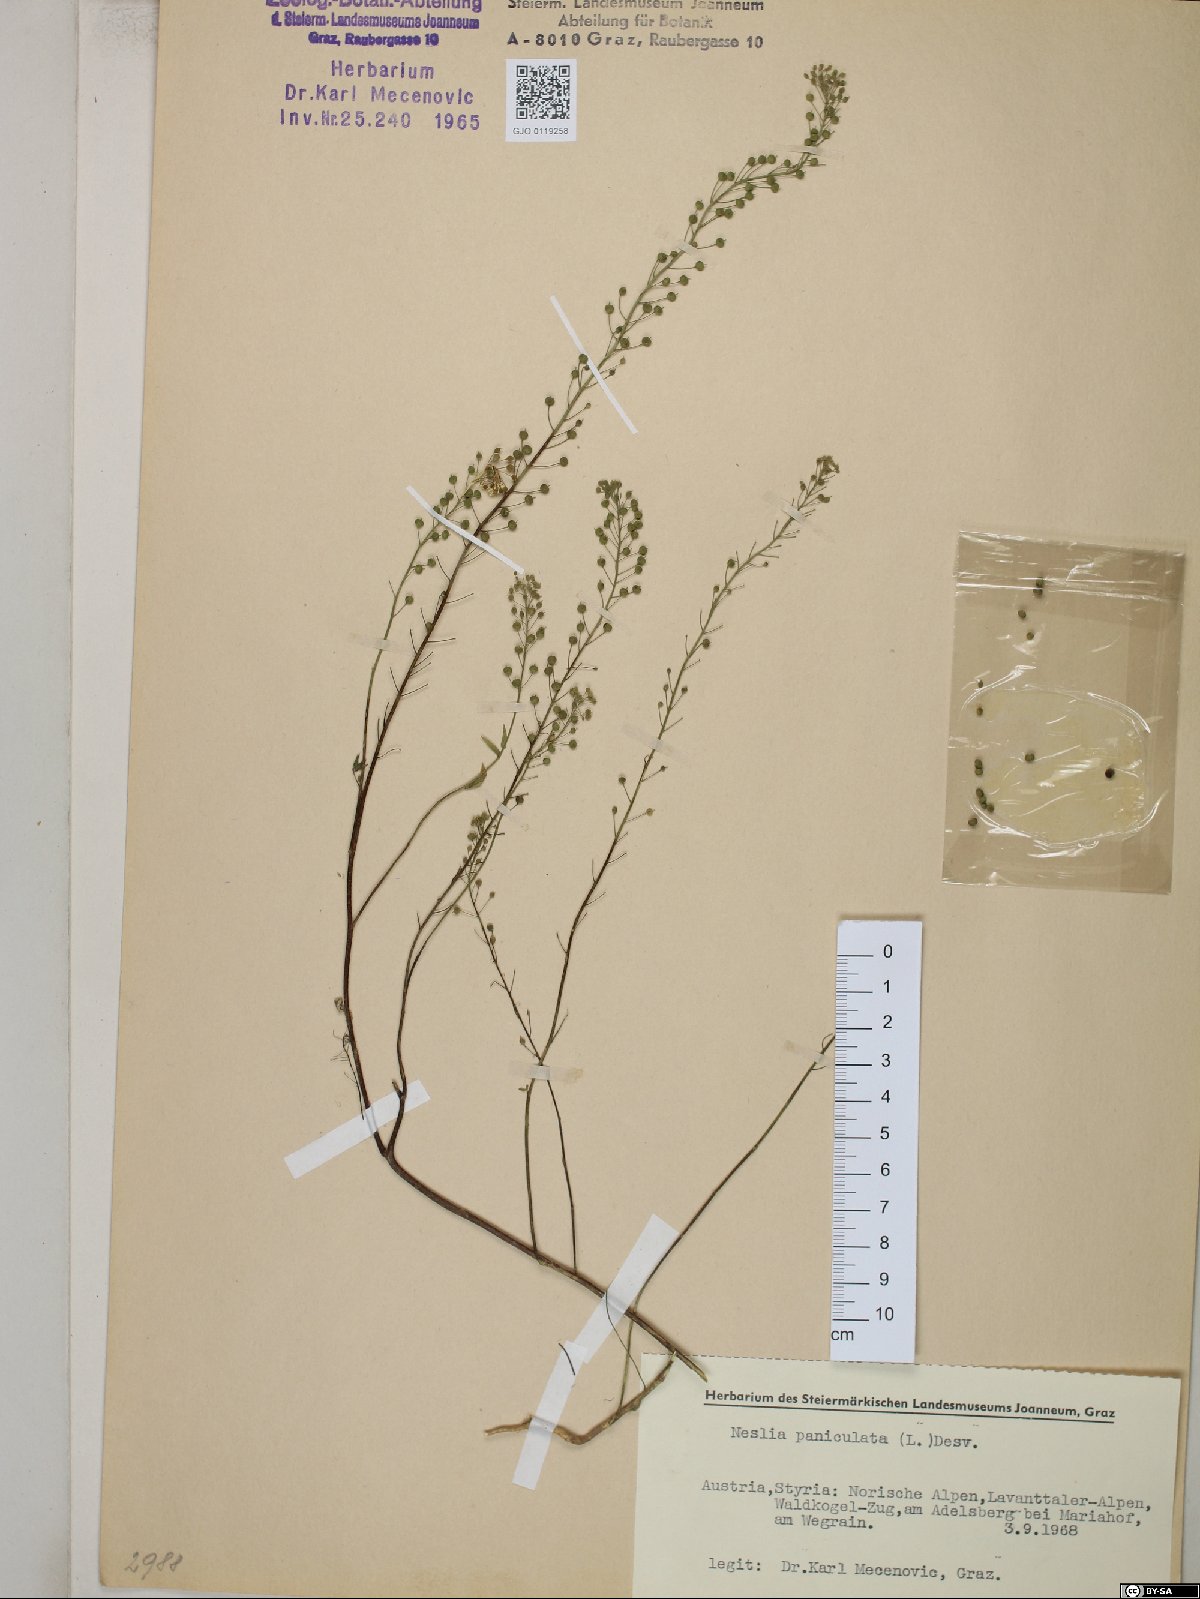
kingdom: Plantae
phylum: Tracheophyta
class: Magnoliopsida
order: Brassicales
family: Brassicaceae
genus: Neslia
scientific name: Neslia paniculata
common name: Ball mustard
